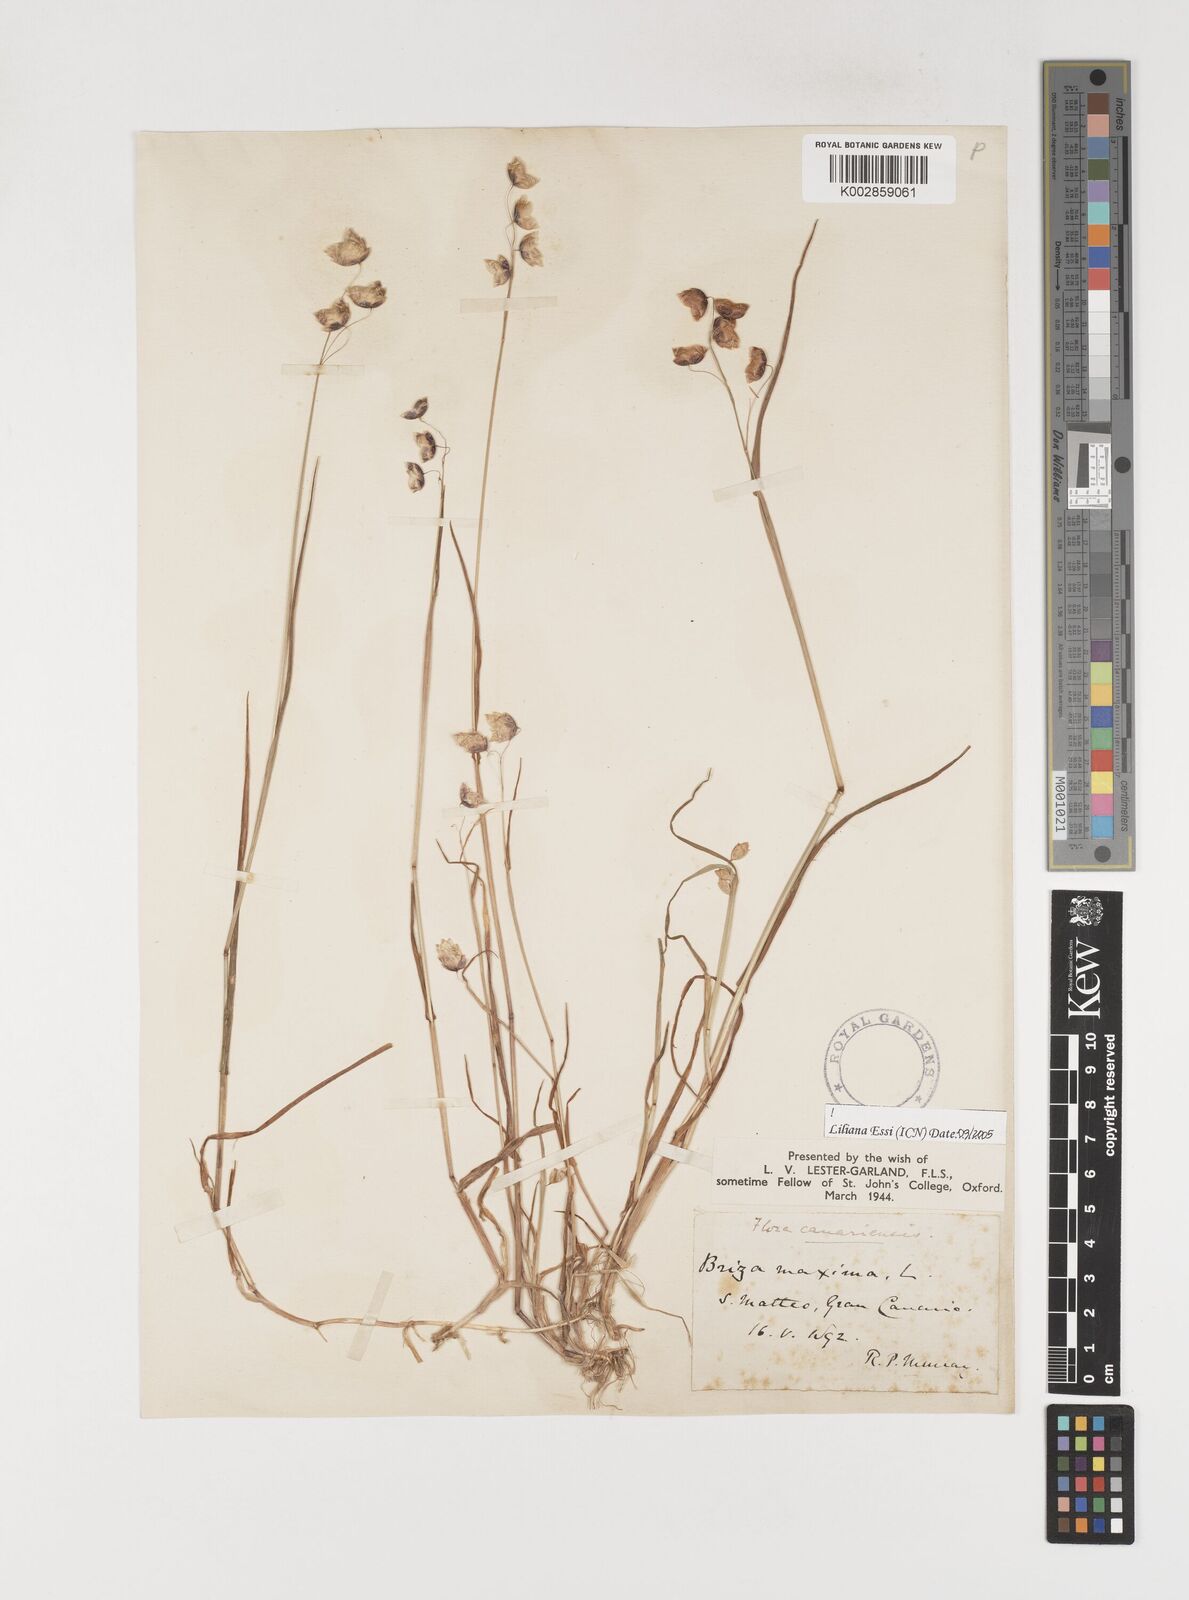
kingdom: Plantae
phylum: Tracheophyta
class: Liliopsida
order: Poales
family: Poaceae
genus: Briza
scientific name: Briza maxima
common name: Big quakinggrass
